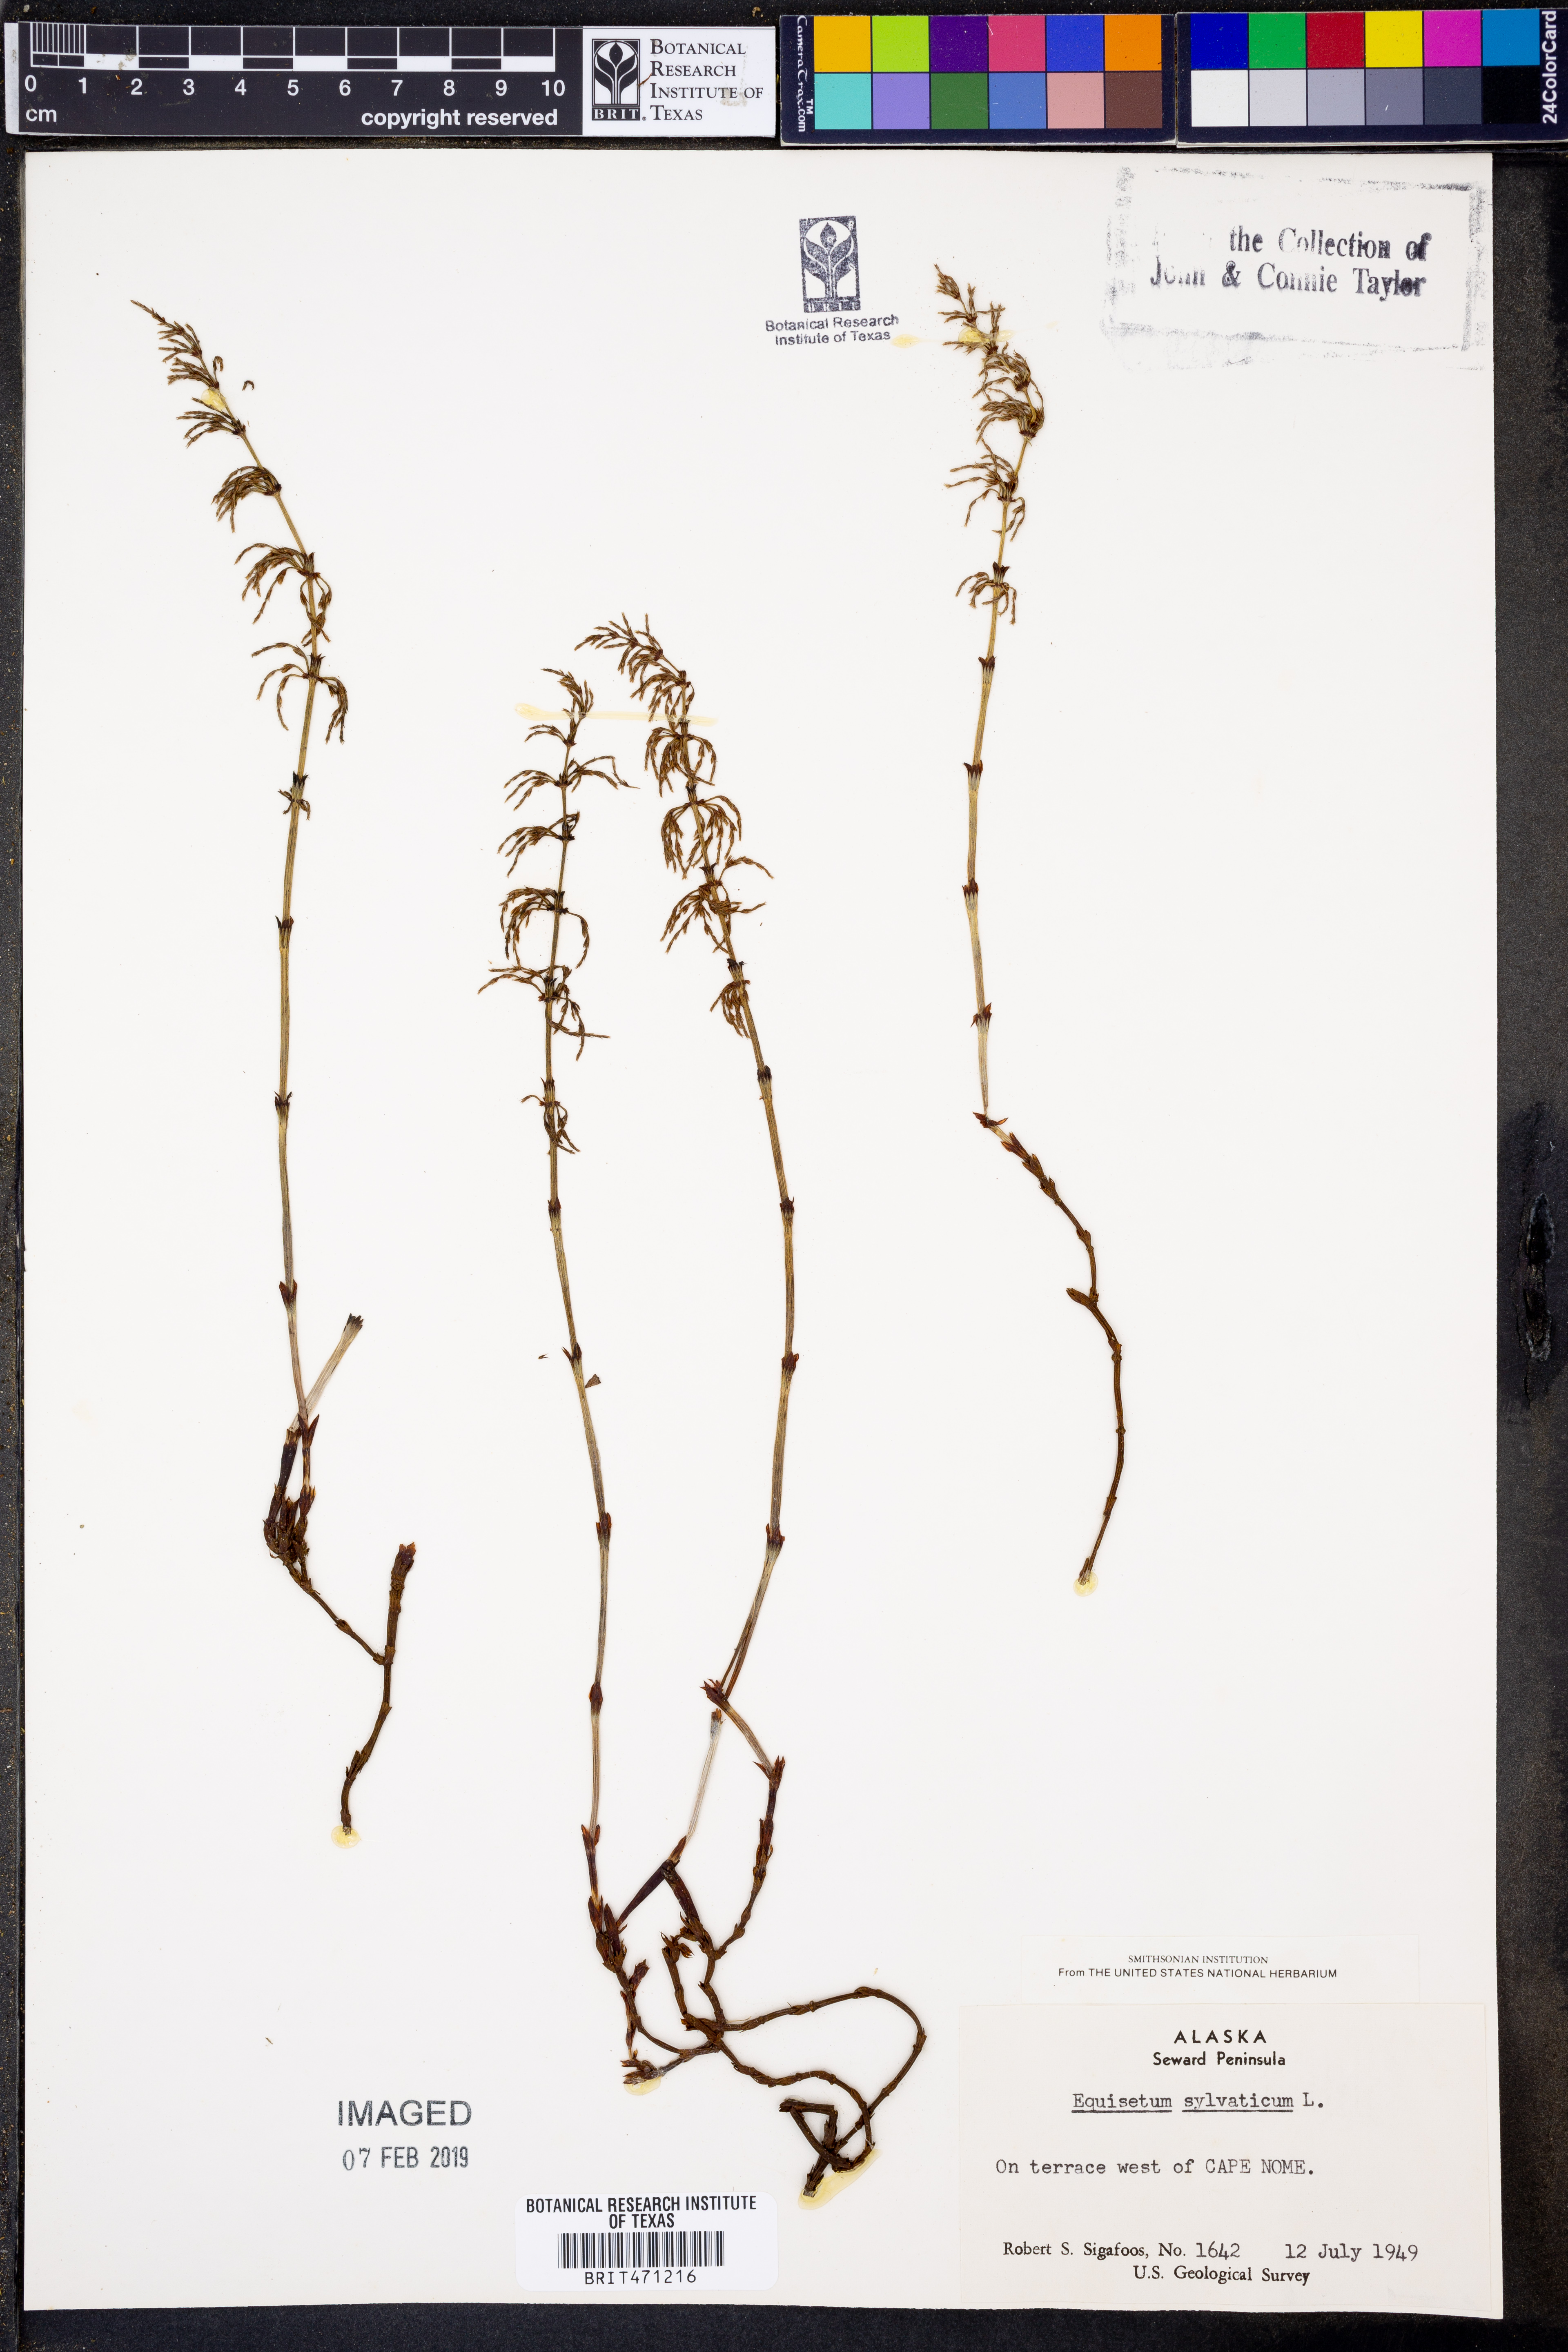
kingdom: Plantae
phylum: Tracheophyta
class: Polypodiopsida
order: Equisetales
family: Equisetaceae
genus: Equisetum
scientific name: Equisetum sylvaticum
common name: Wood horsetail
